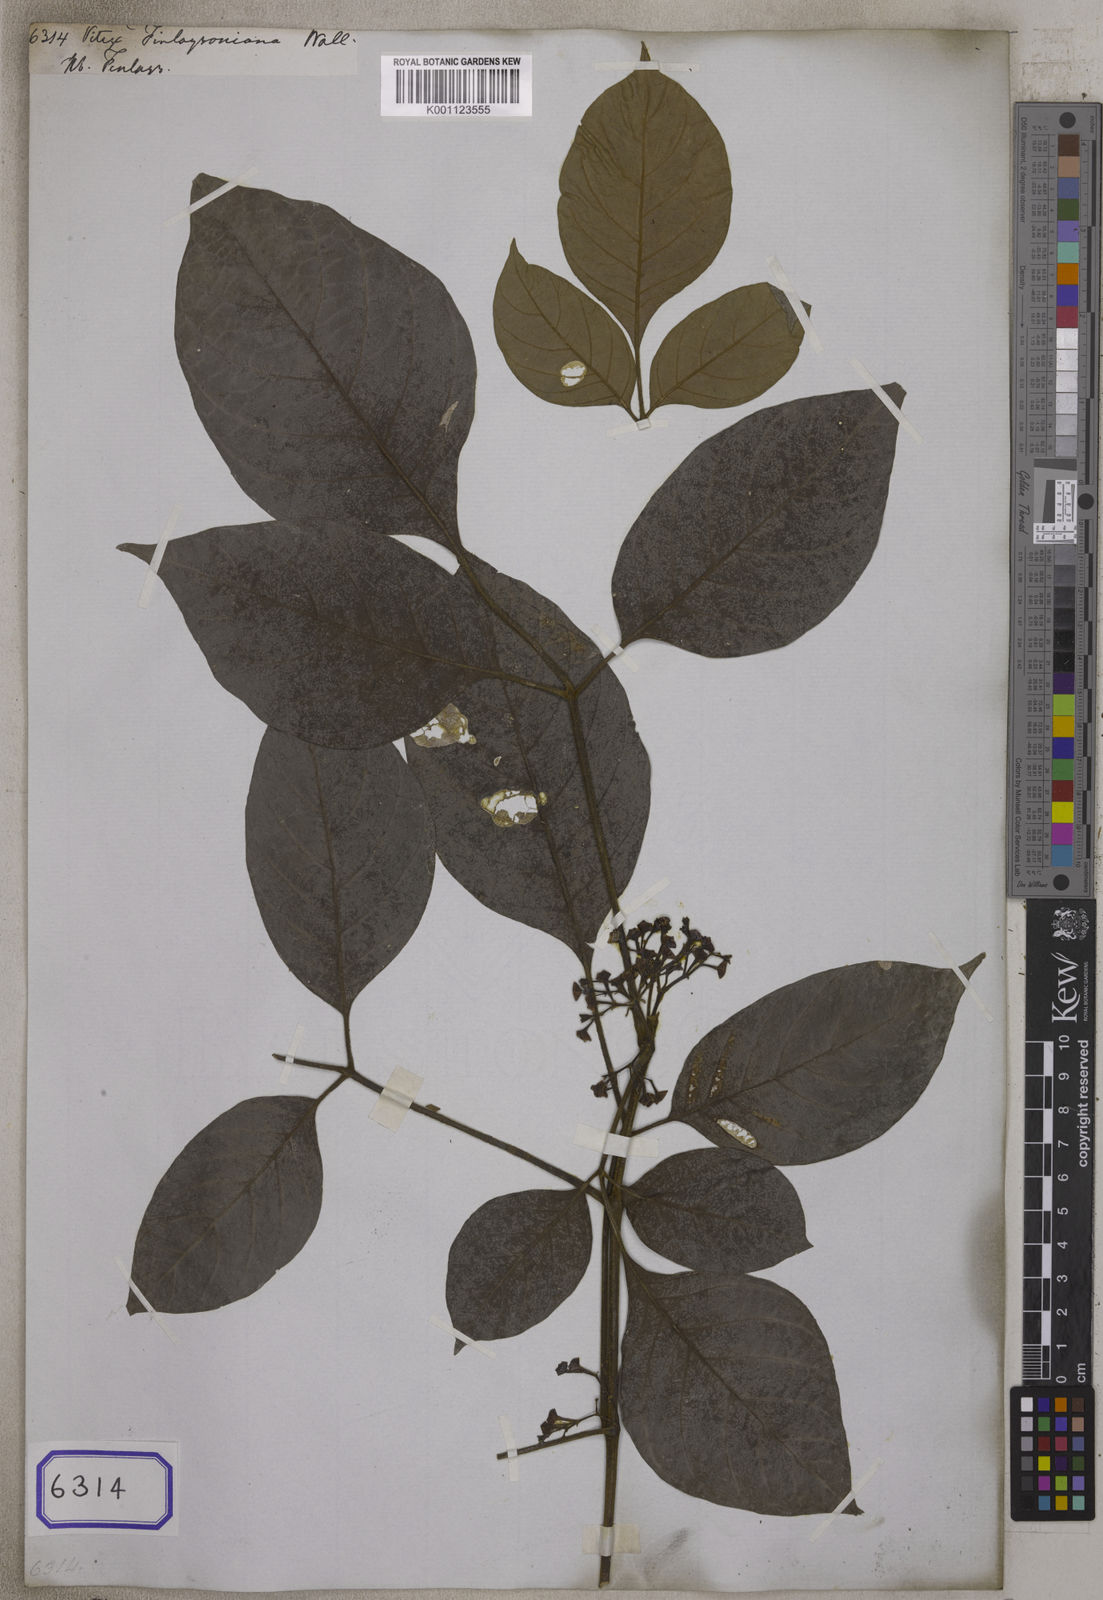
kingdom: Plantae
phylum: Tracheophyta
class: Magnoliopsida
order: Lamiales
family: Lamiaceae
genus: Vitex
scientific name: Vitex vestita
